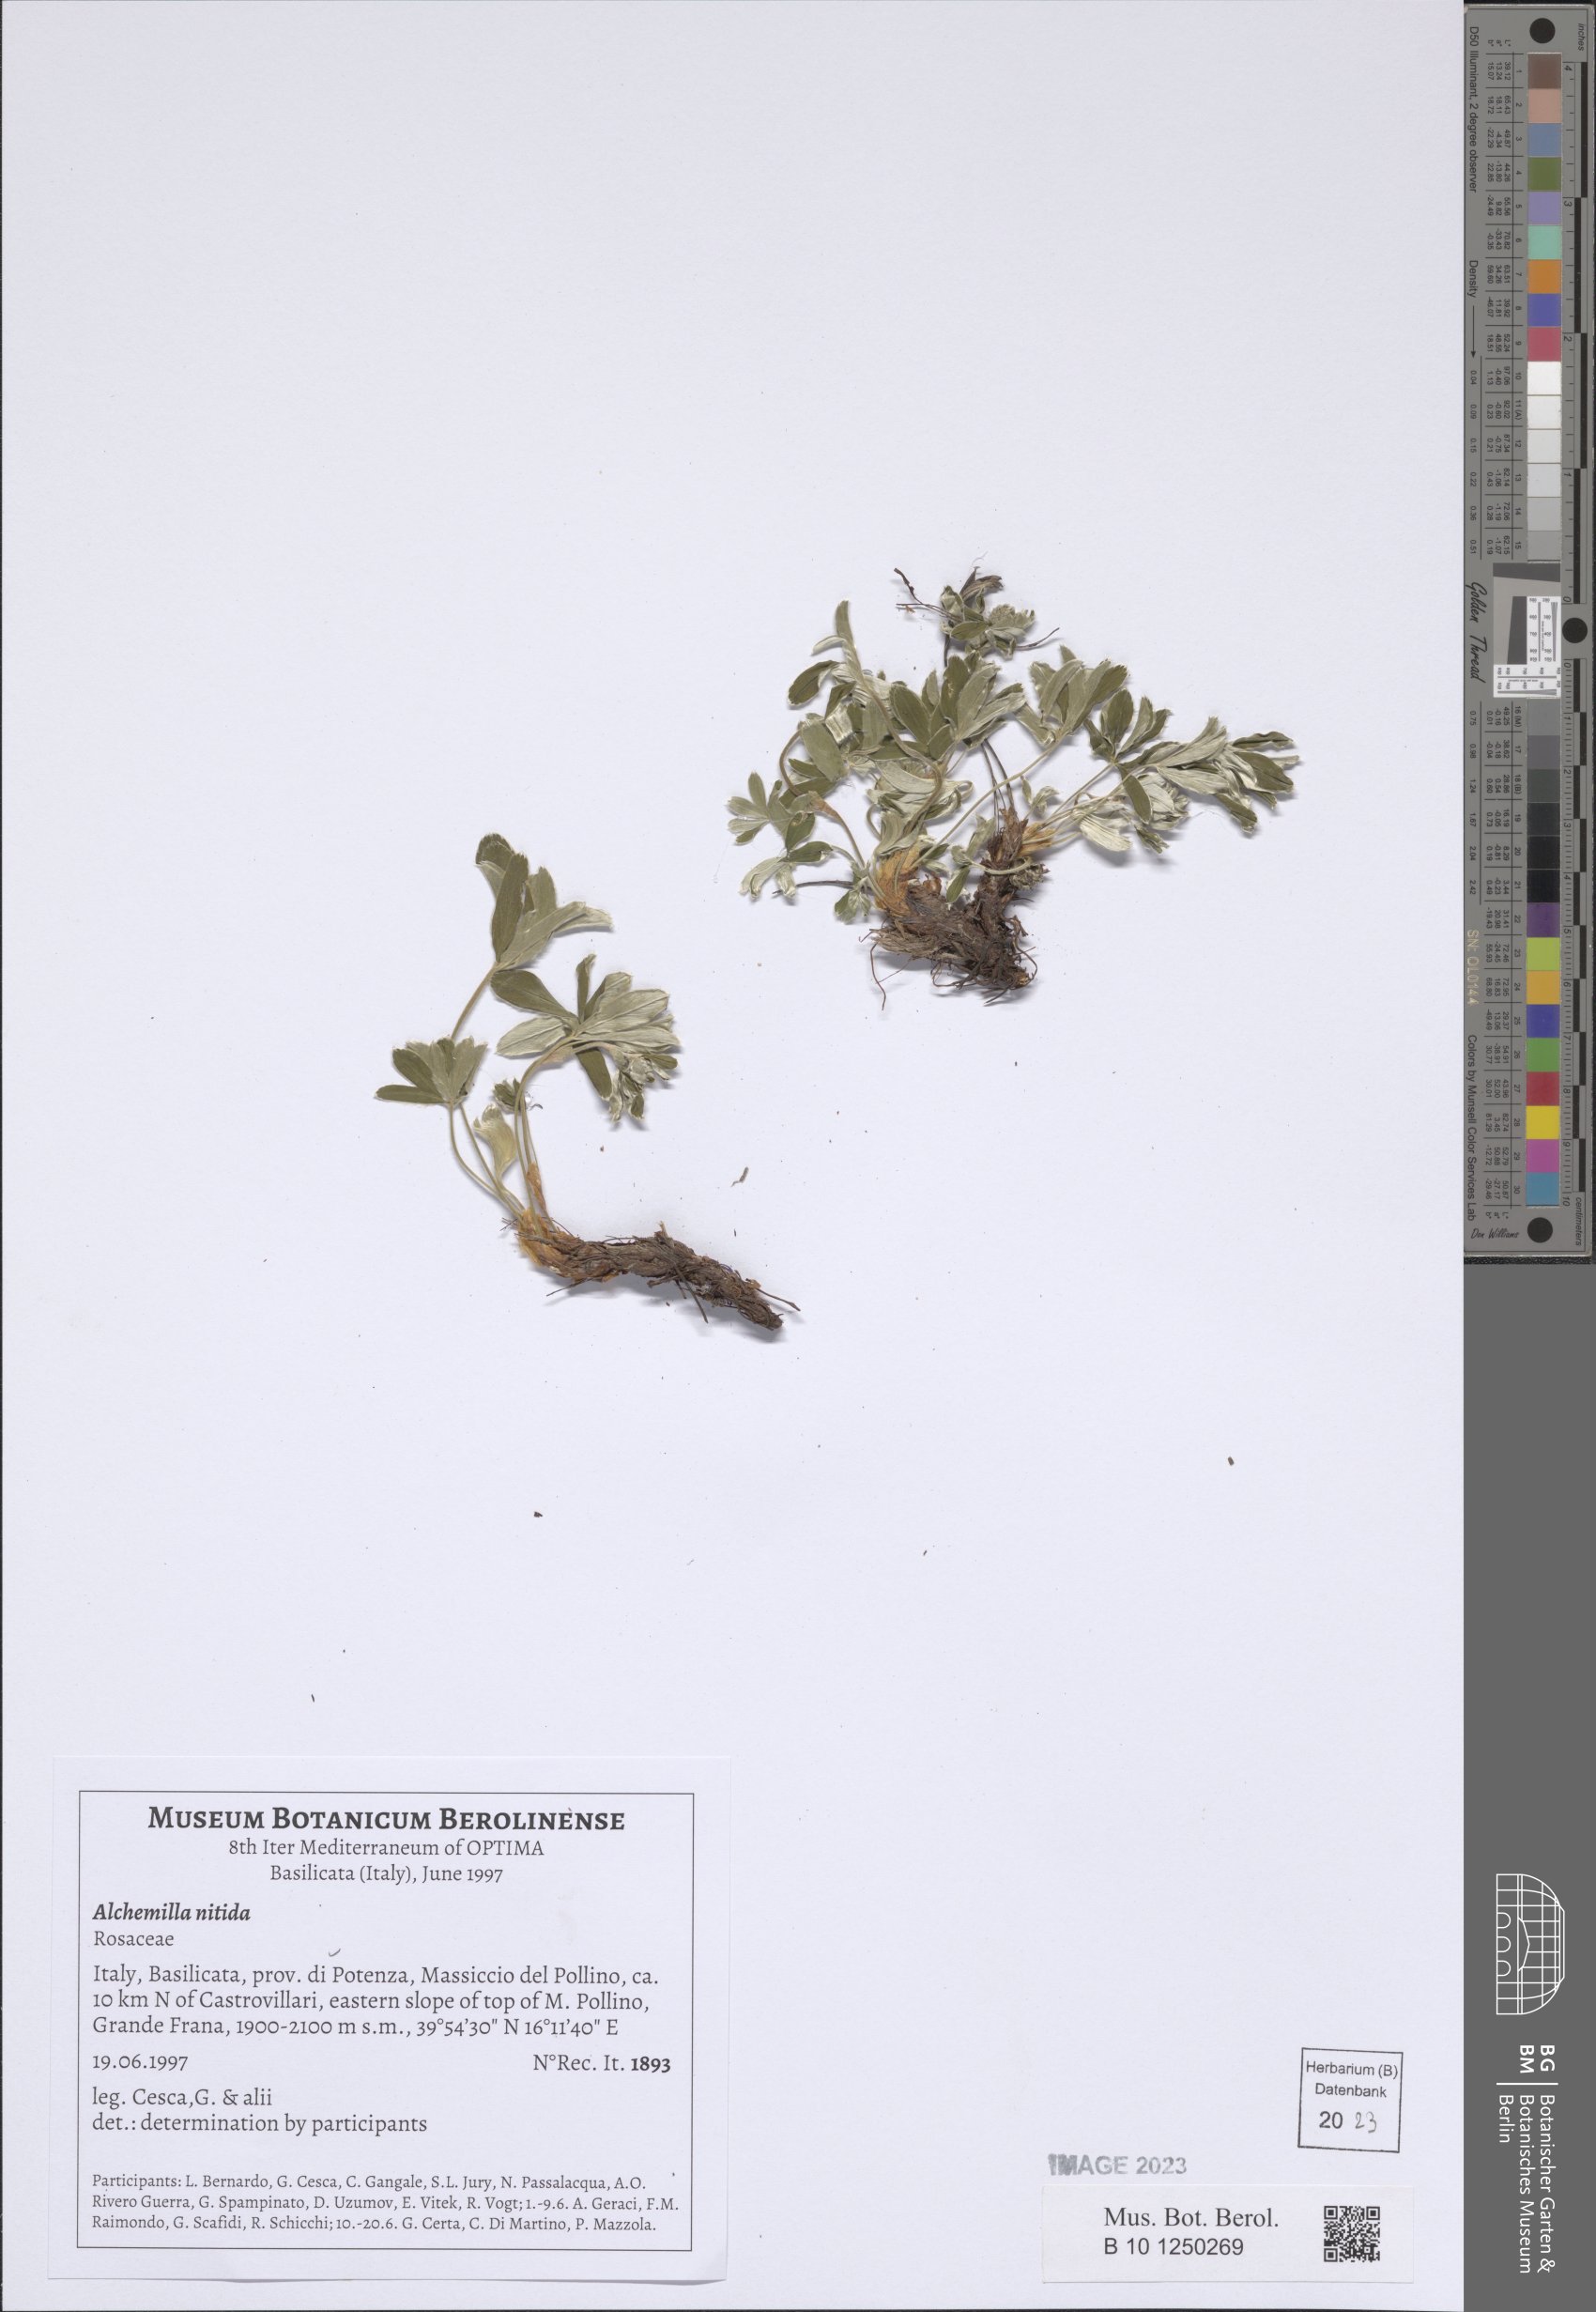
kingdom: Plantae
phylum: Tracheophyta
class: Magnoliopsida
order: Rosales
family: Rosaceae
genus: Alchemilla
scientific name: Alchemilla nitida
